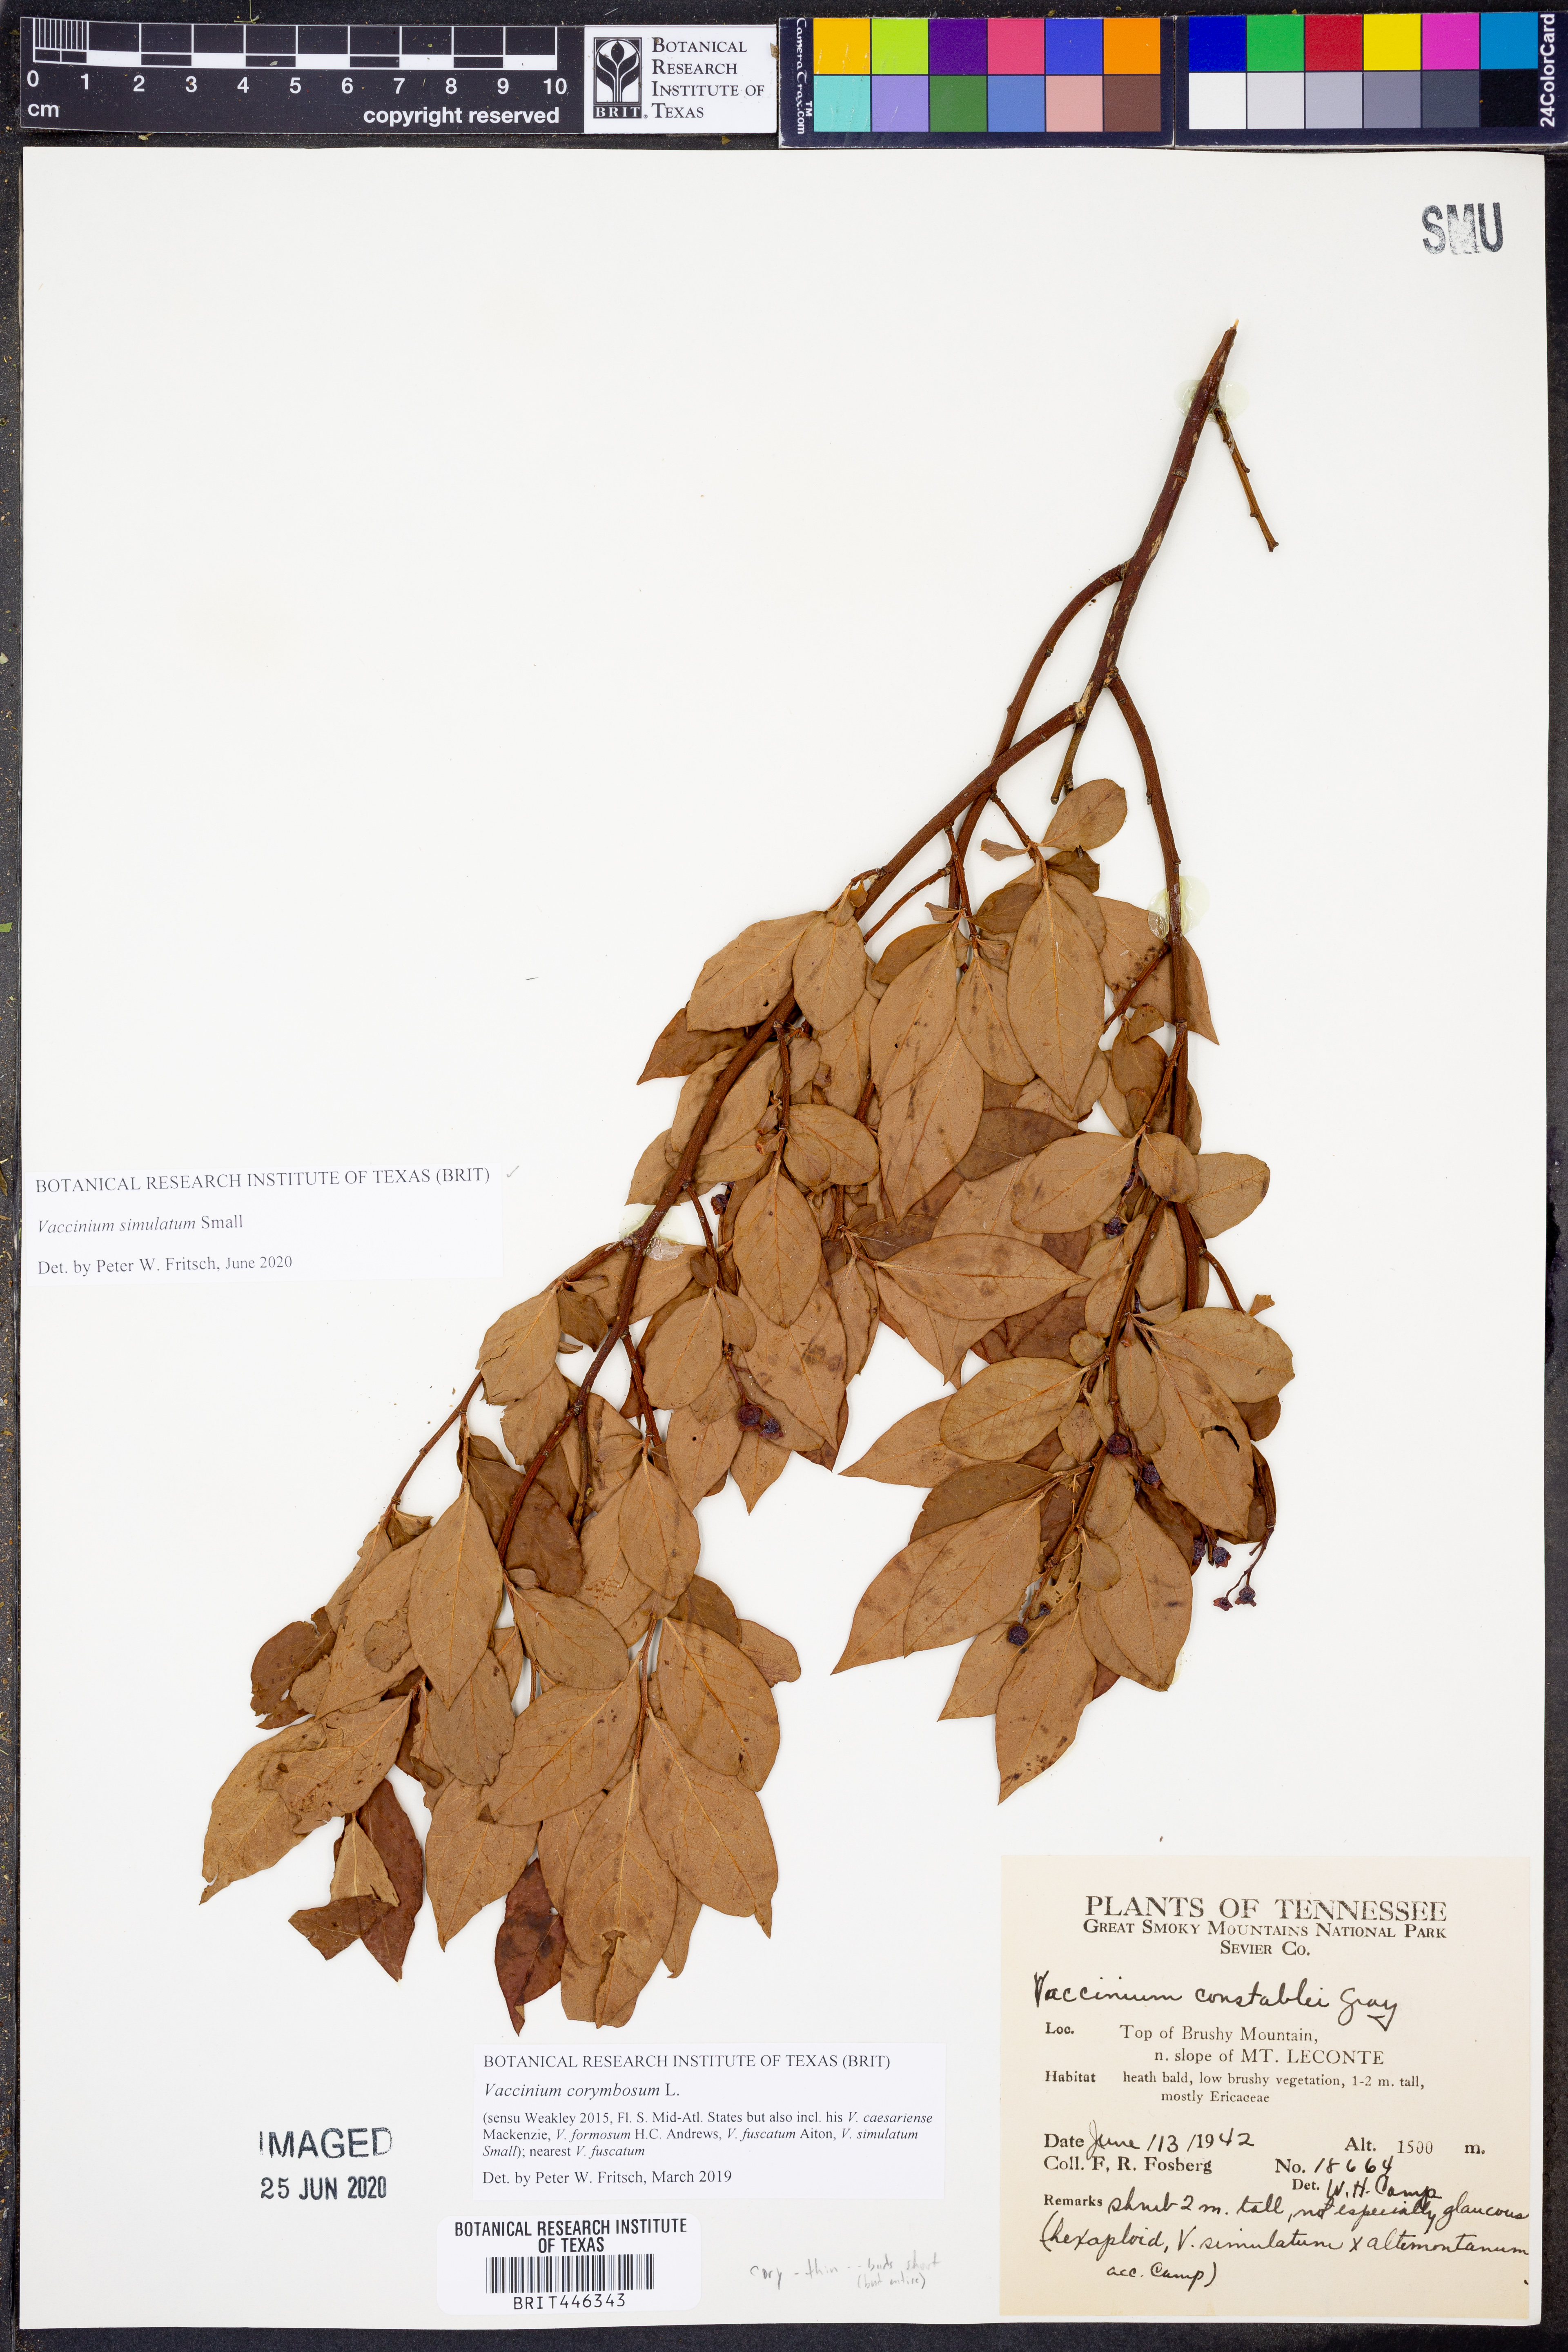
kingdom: Plantae
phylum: Tracheophyta
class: Magnoliopsida
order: Ericales
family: Ericaceae
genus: Vaccinium
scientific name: Vaccinium corymbosum
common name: Blueberry
